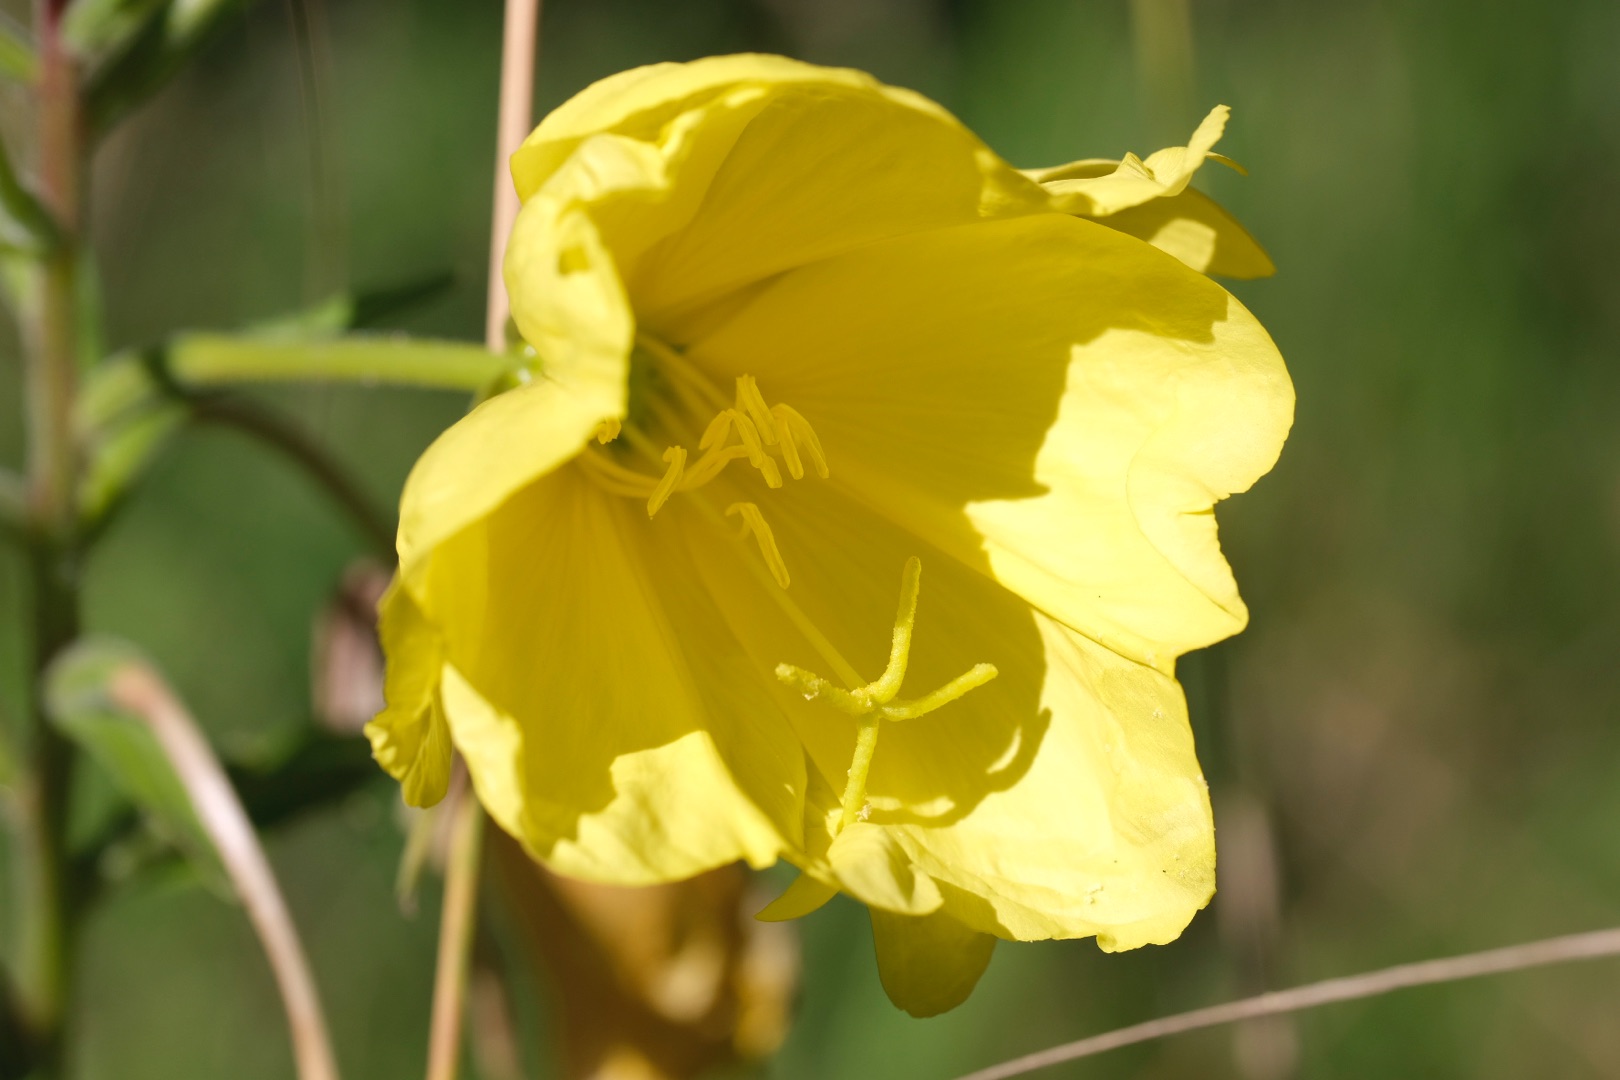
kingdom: Plantae
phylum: Tracheophyta
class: Magnoliopsida
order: Myrtales
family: Onagraceae
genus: Oenothera
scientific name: Oenothera glazioviana
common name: Kæmpe-natlys
